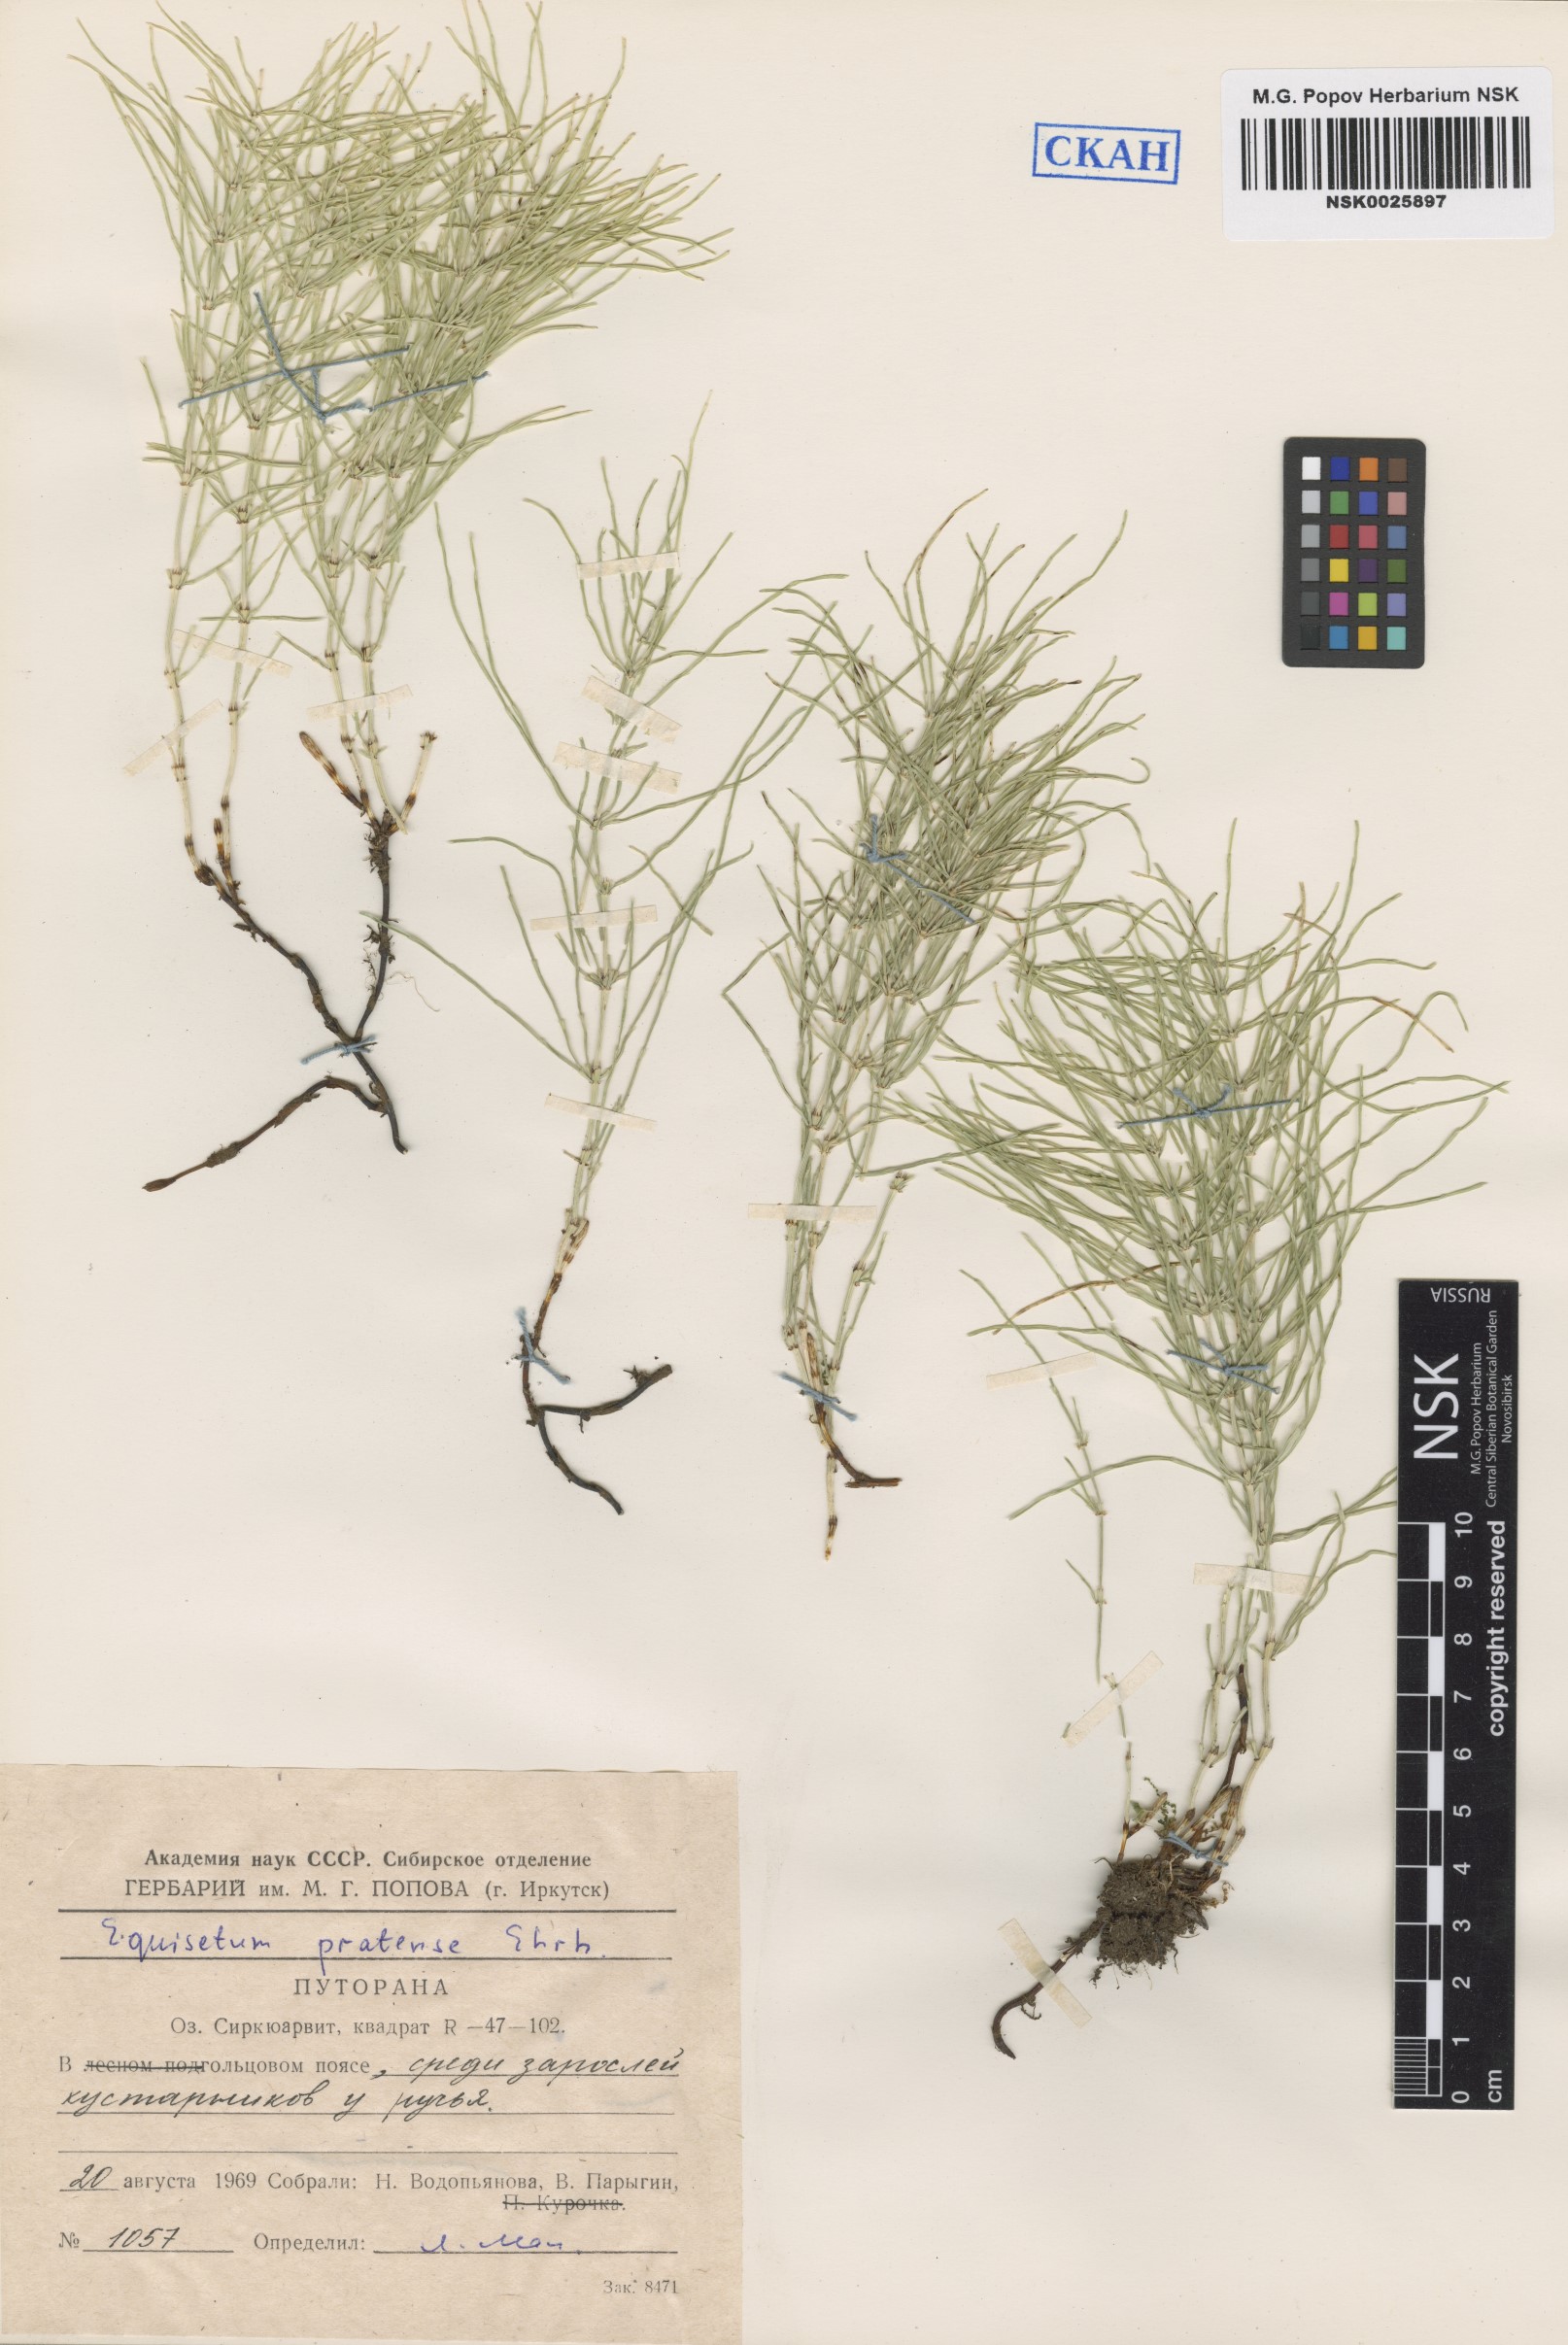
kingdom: Plantae
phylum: Tracheophyta
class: Polypodiopsida
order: Equisetales
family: Equisetaceae
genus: Equisetum
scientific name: Equisetum pratense
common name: Meadow horsetail
